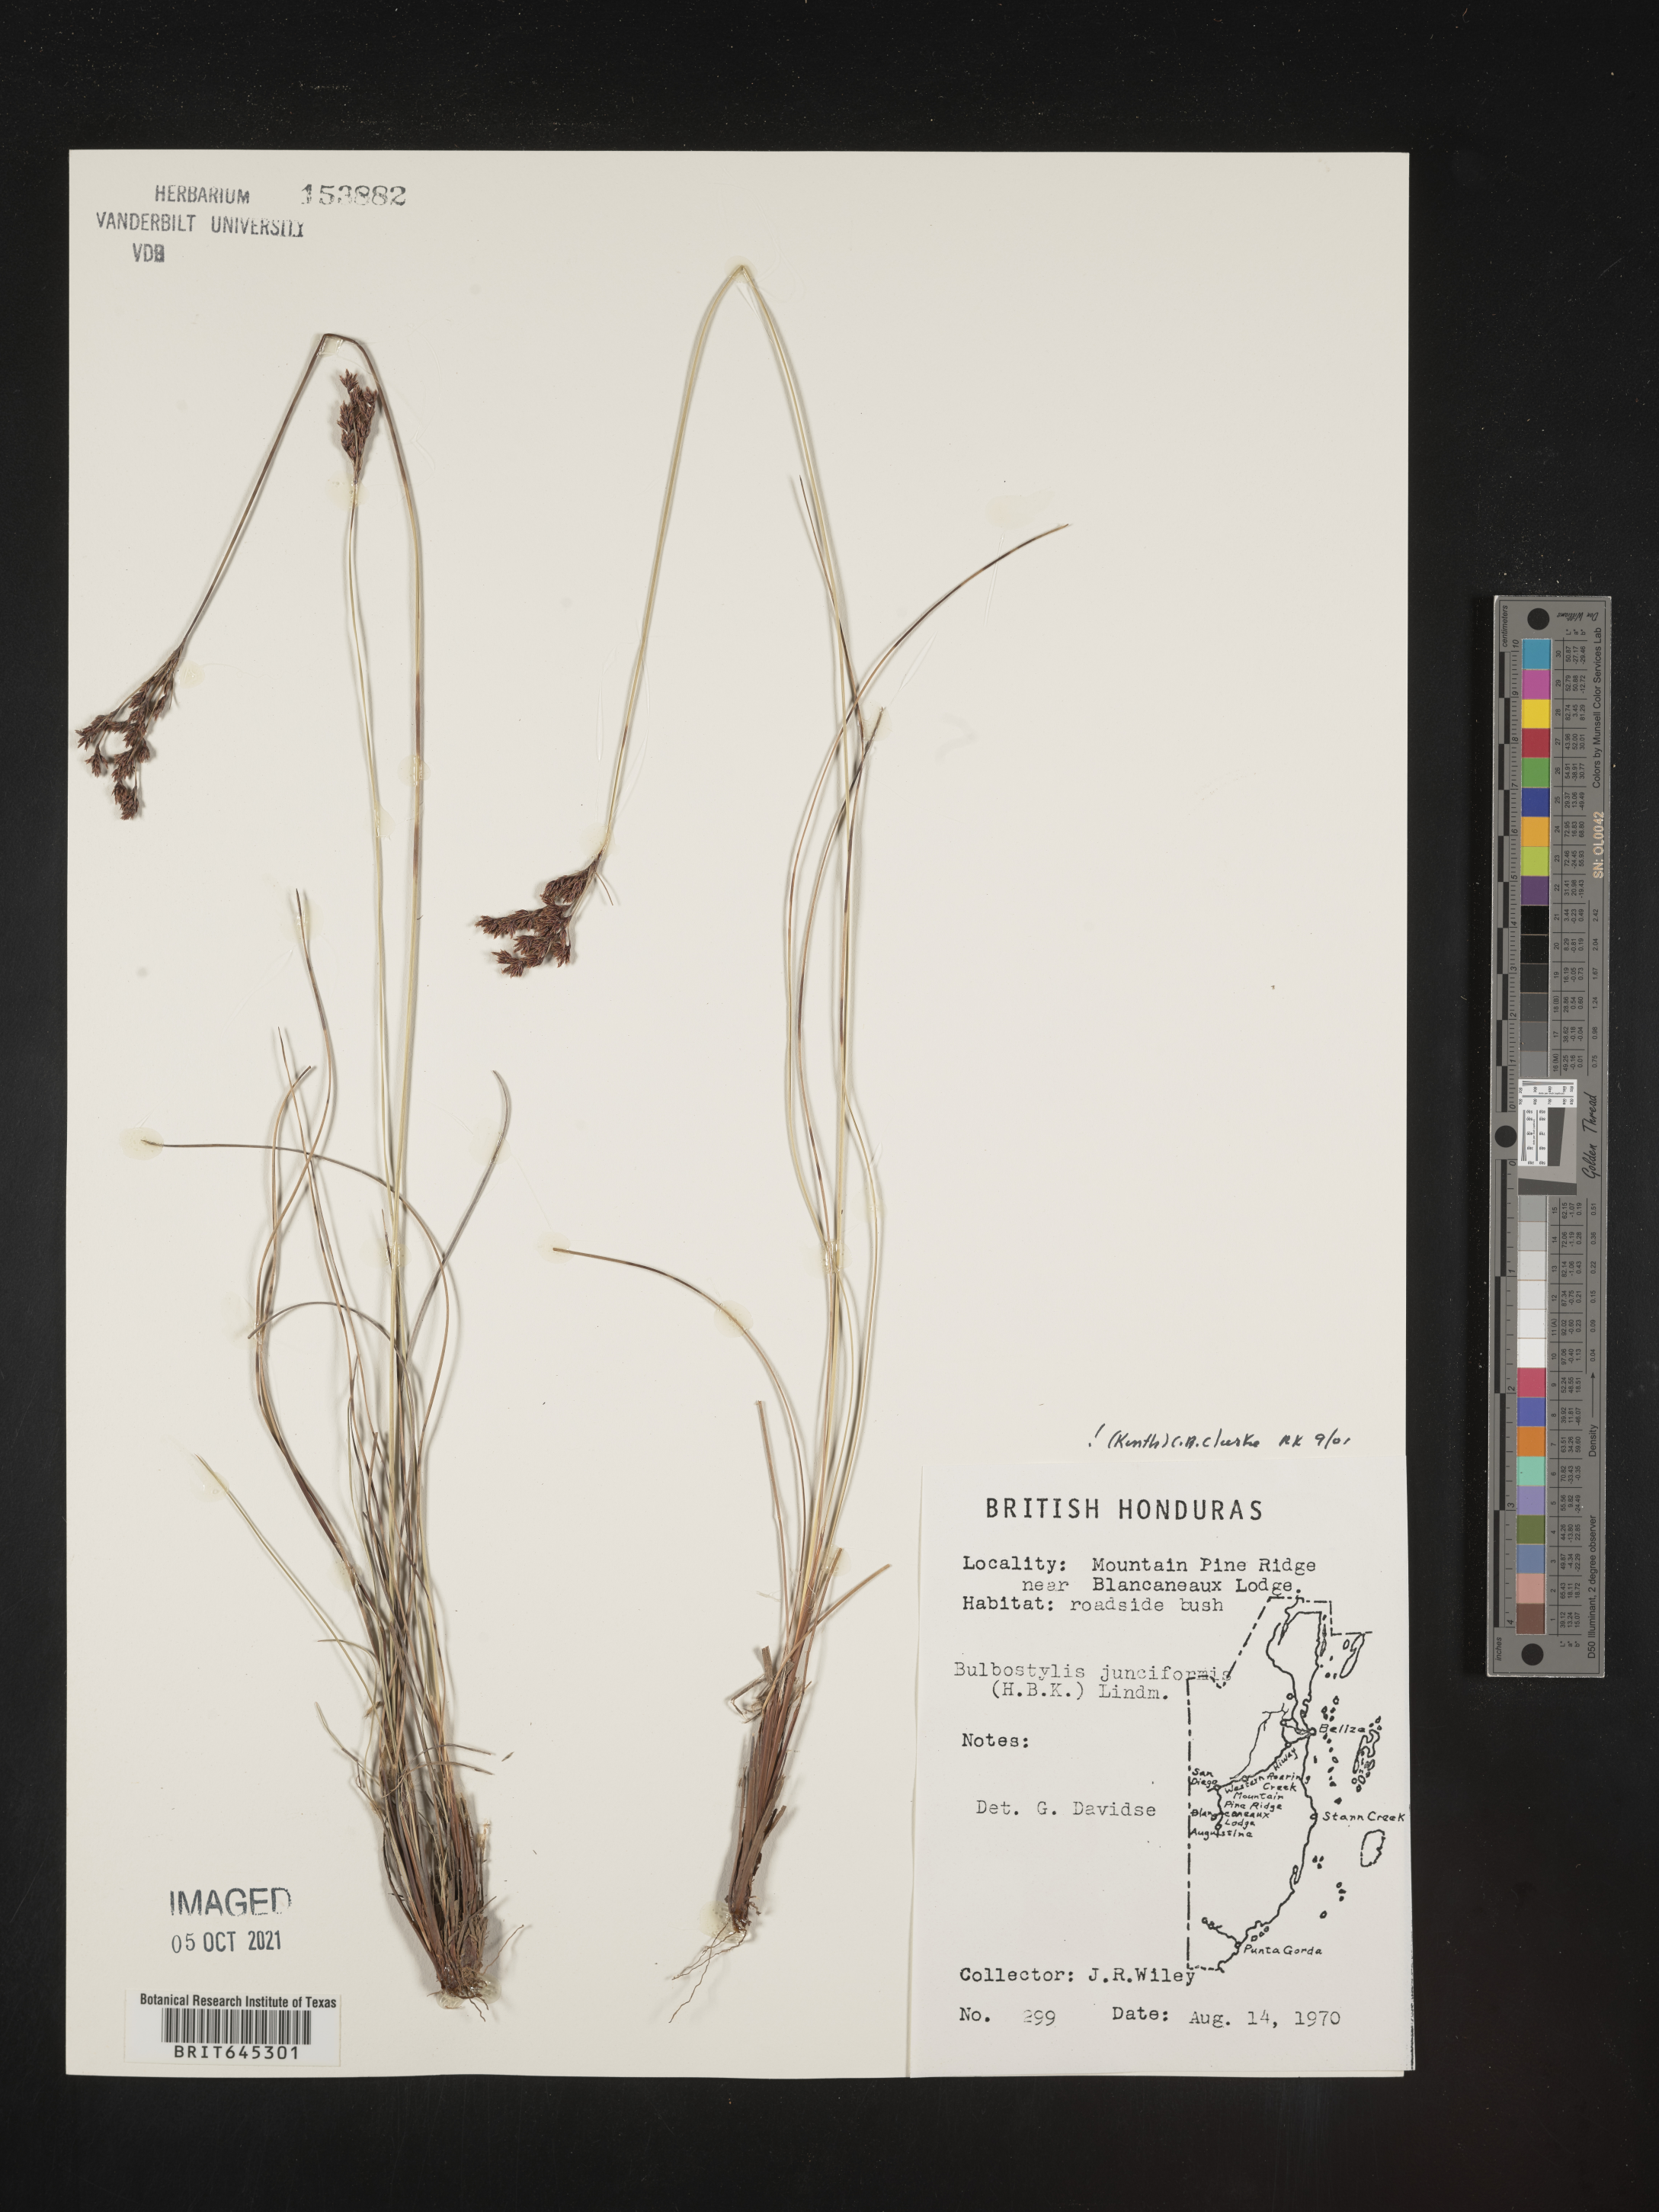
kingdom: Plantae
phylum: Tracheophyta
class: Liliopsida
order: Poales
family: Cyperaceae
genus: Bulbostylis
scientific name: Bulbostylis junciformis
